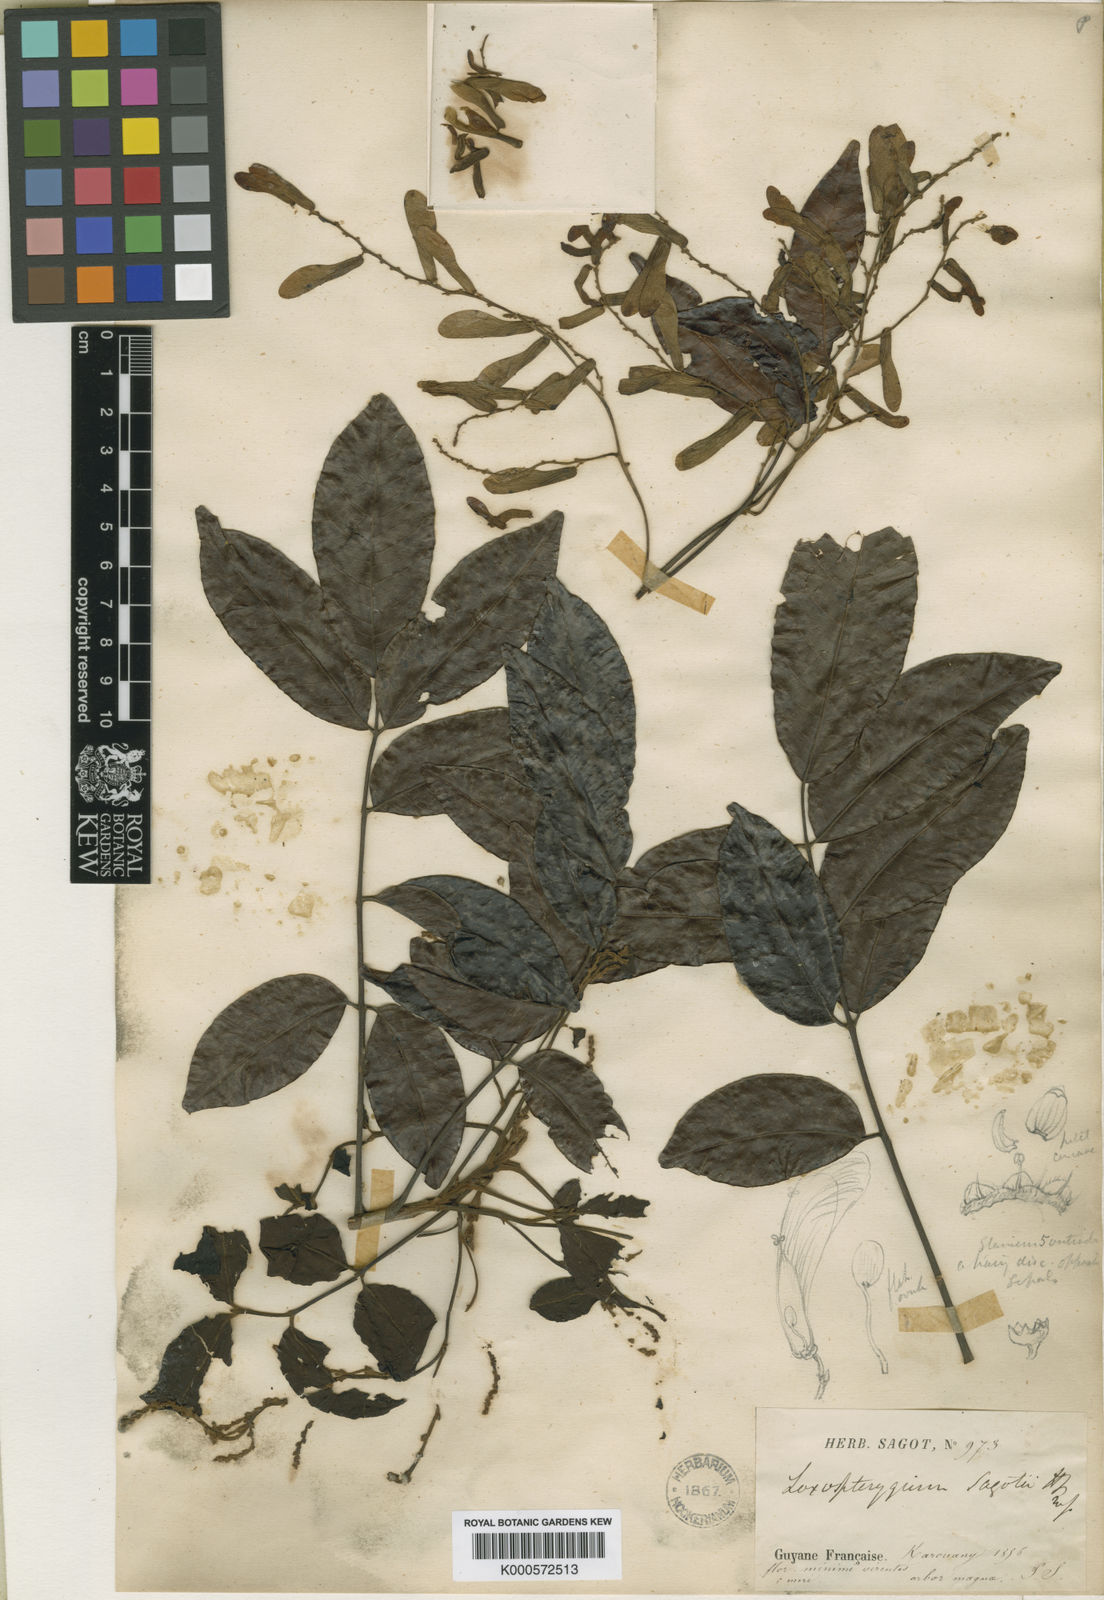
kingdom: Plantae
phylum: Tracheophyta
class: Magnoliopsida
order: Sapindales
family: Anacardiaceae
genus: Loxopterygium
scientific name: Loxopterygium sagotii
